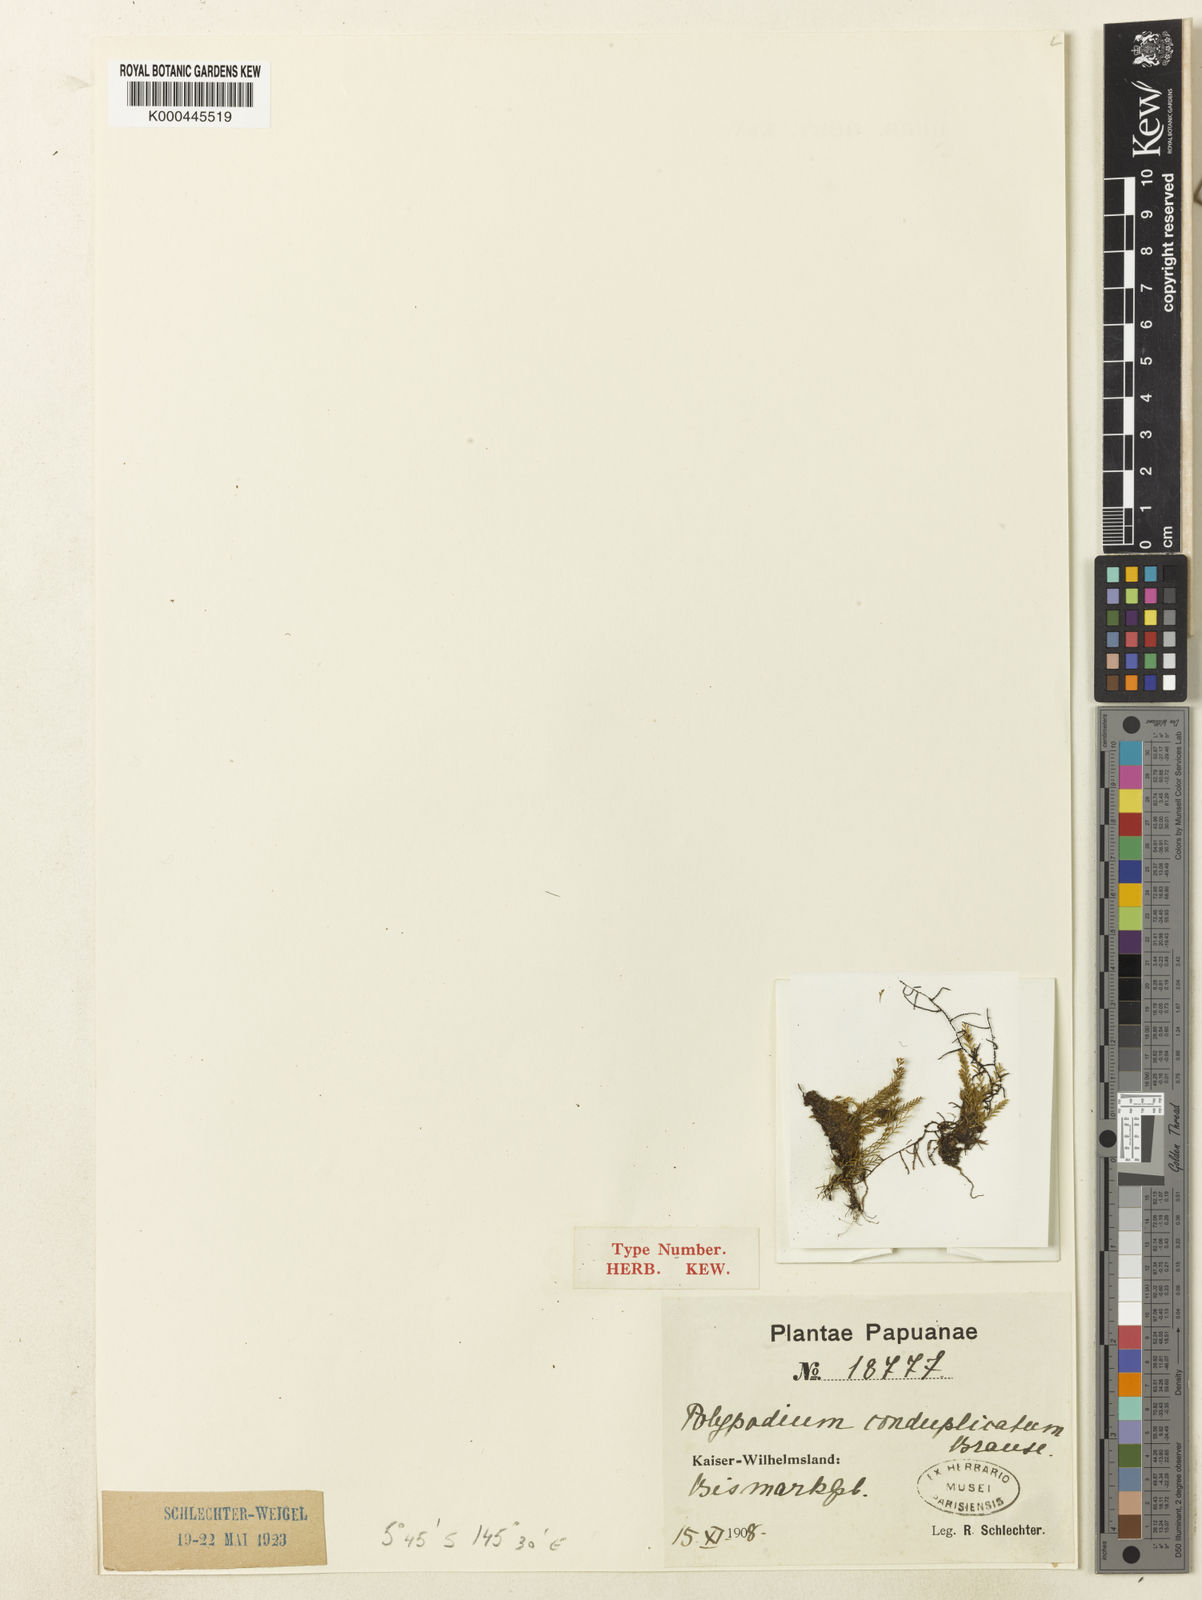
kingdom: Plantae
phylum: Tracheophyta
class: Polypodiopsida
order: Polypodiales
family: Polypodiaceae
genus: Calymmodon
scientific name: Calymmodon conduplicatus
